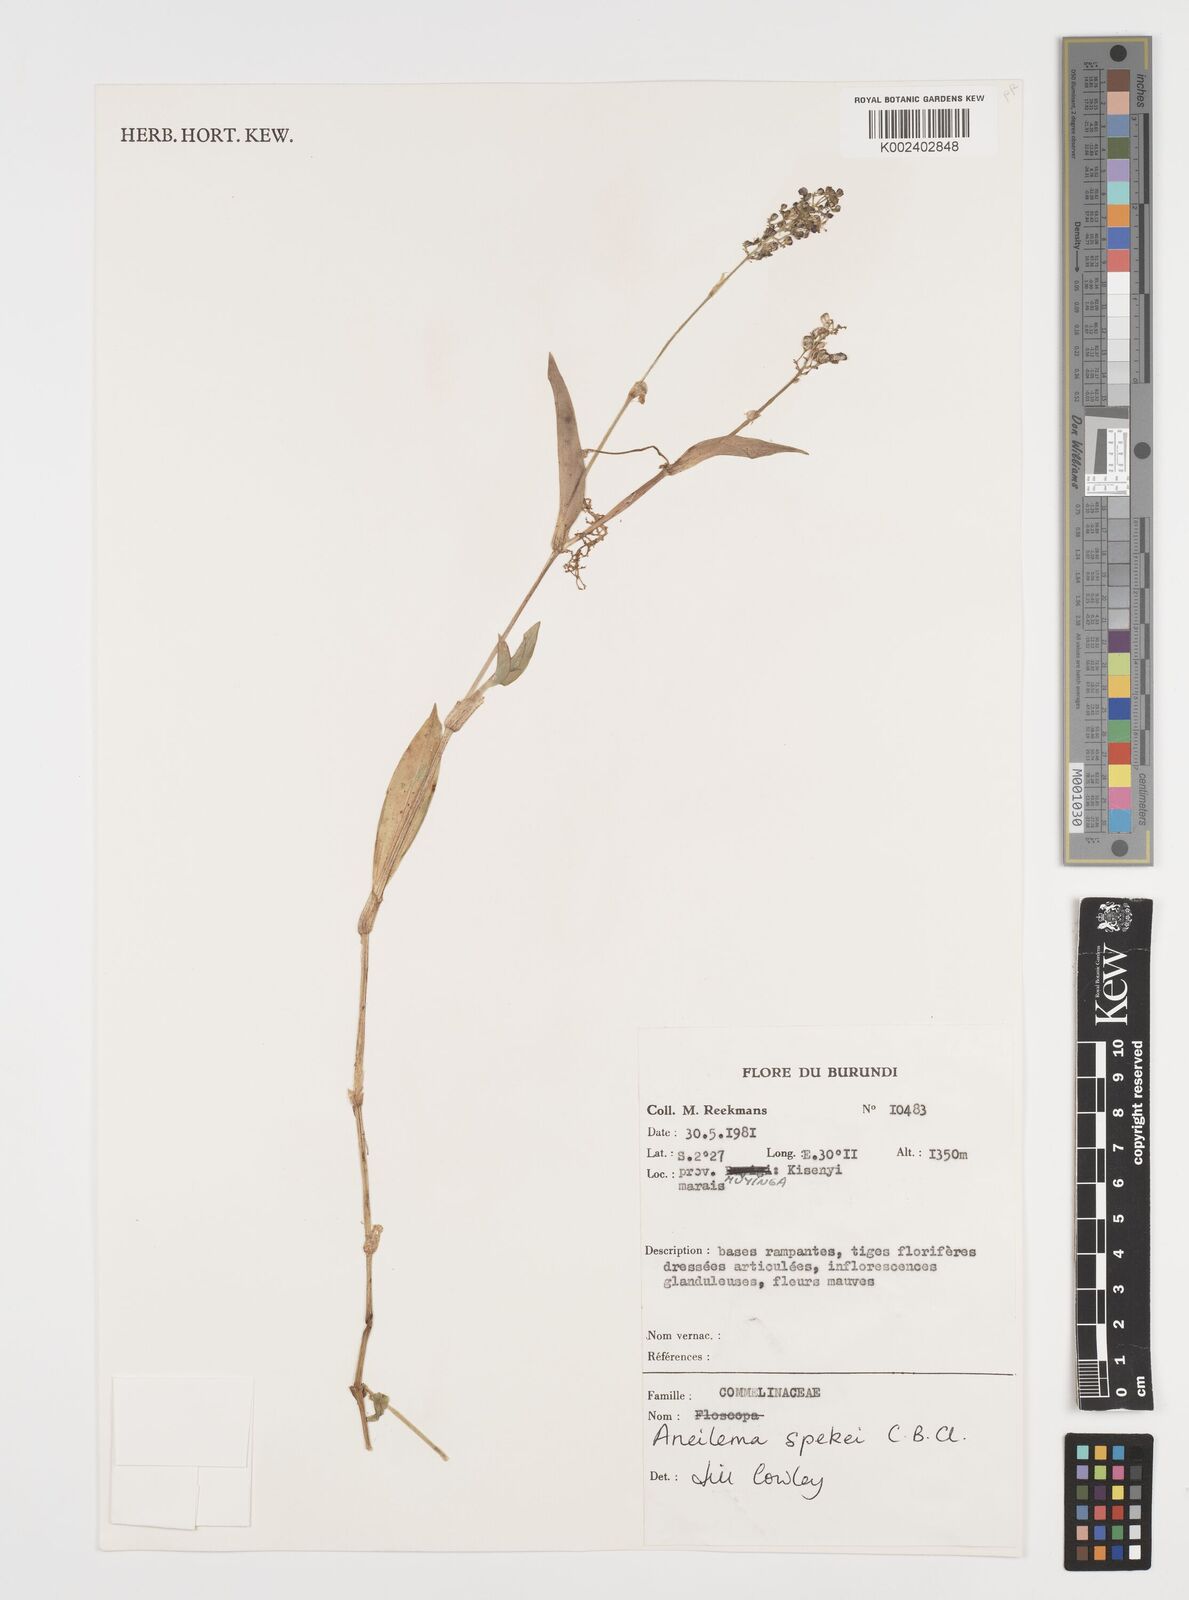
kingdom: Plantae
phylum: Tracheophyta
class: Liliopsida
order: Commelinales
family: Commelinaceae
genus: Aneilema
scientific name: Aneilema spekei
